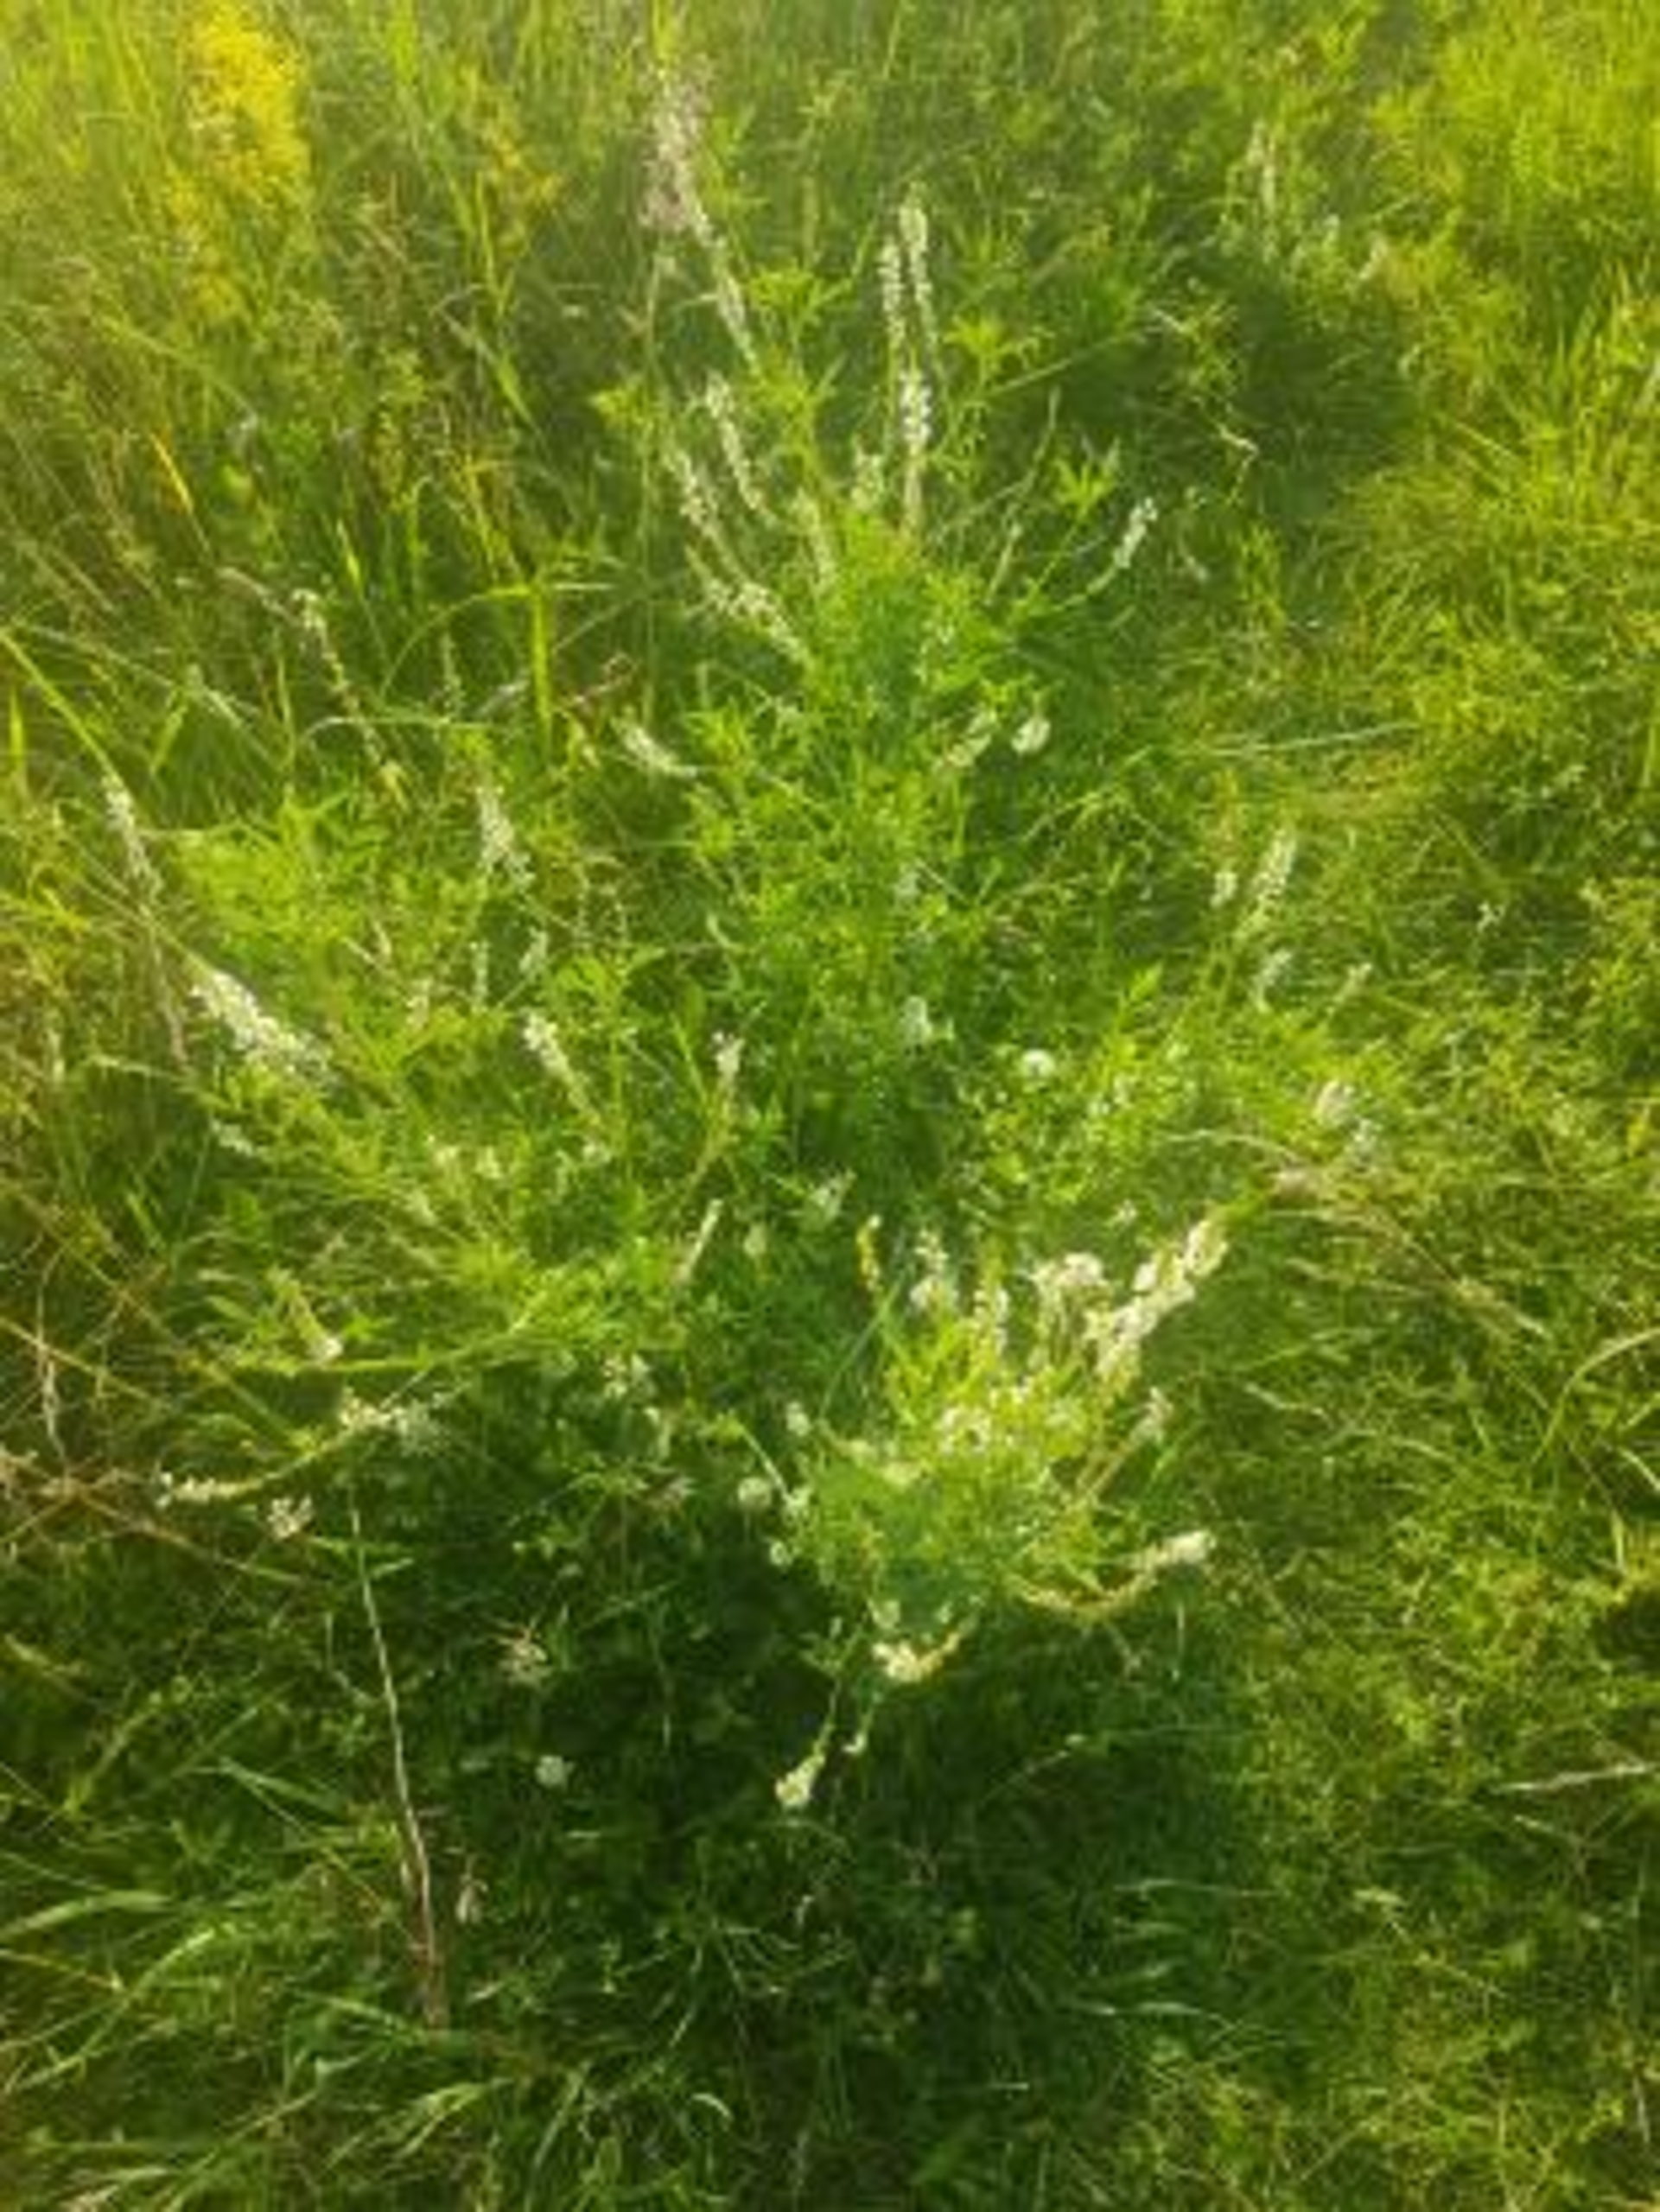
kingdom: Plantae
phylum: Tracheophyta
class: Magnoliopsida
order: Fabales
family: Fabaceae
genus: Melilotus
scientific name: Melilotus albus
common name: Hvid stenkløver
